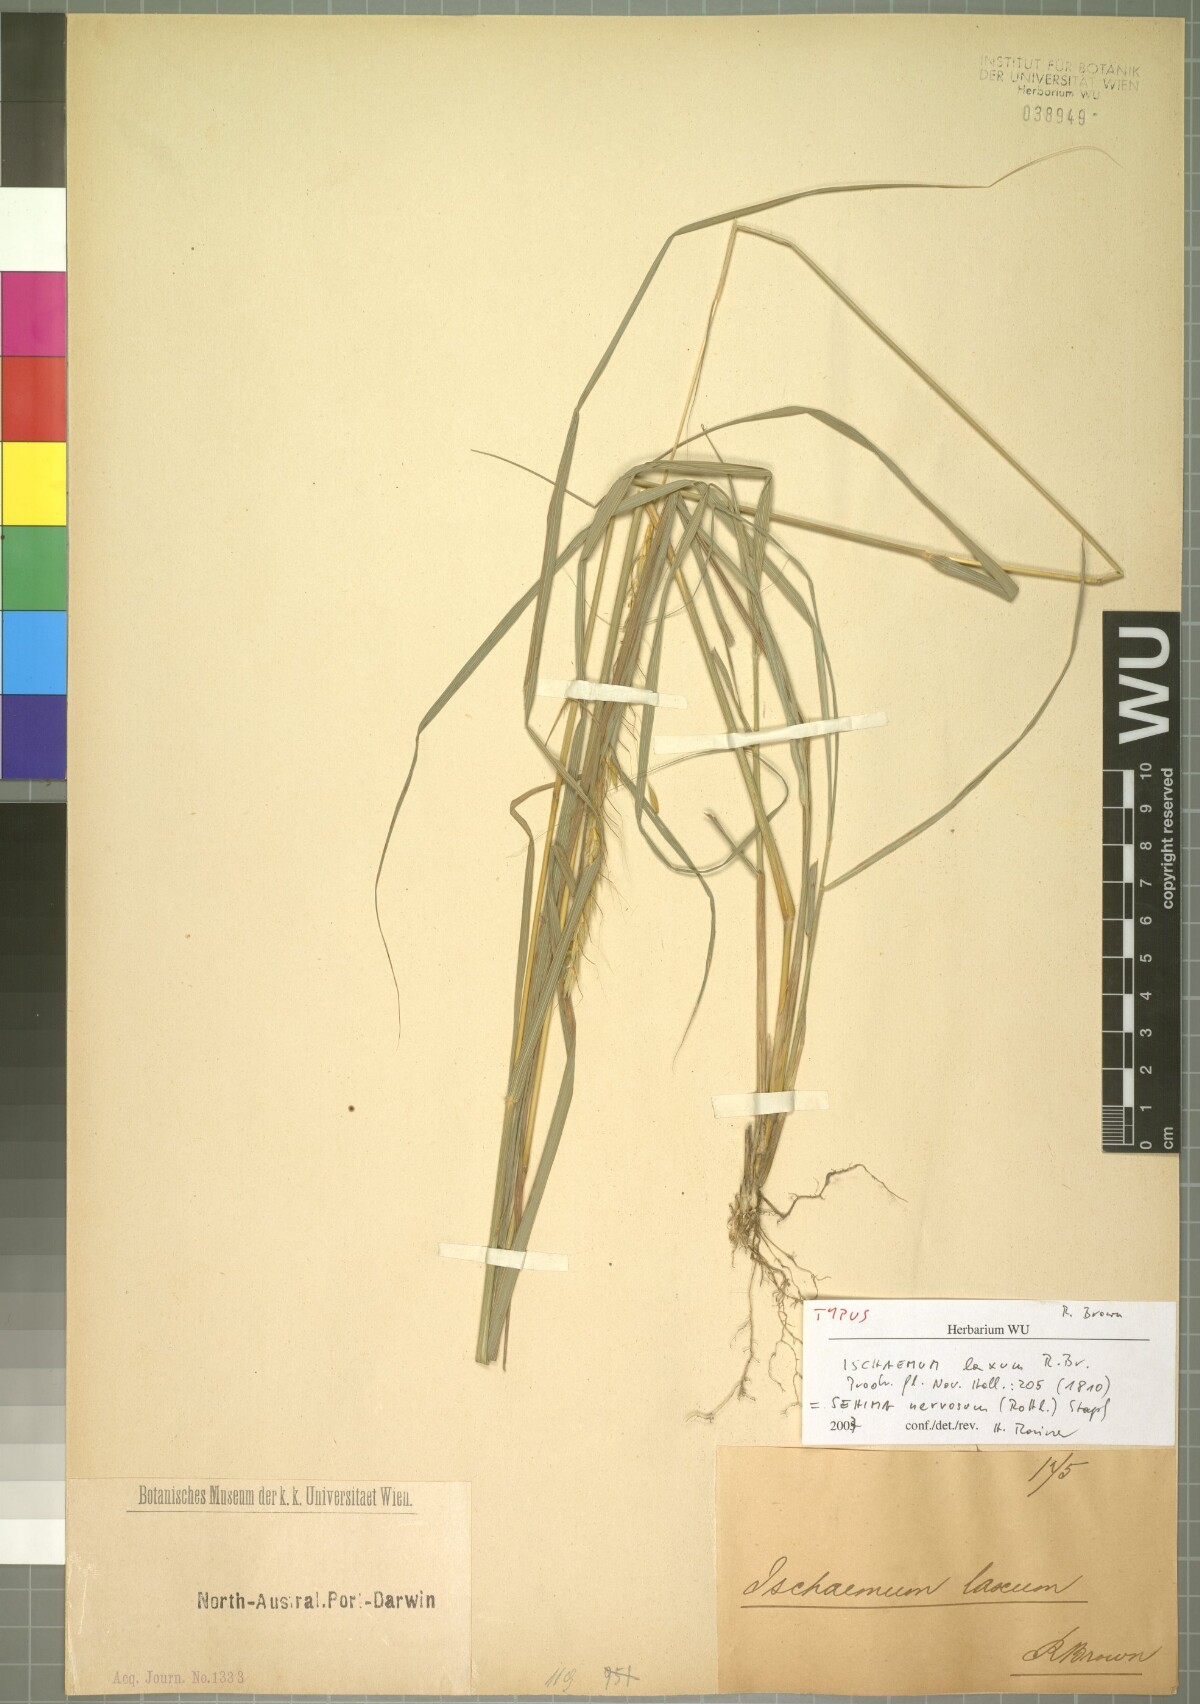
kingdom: Plantae
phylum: Tracheophyta
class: Liliopsida
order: Poales
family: Poaceae
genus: Sehima
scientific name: Sehima nervosa
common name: Rat-tail grass
